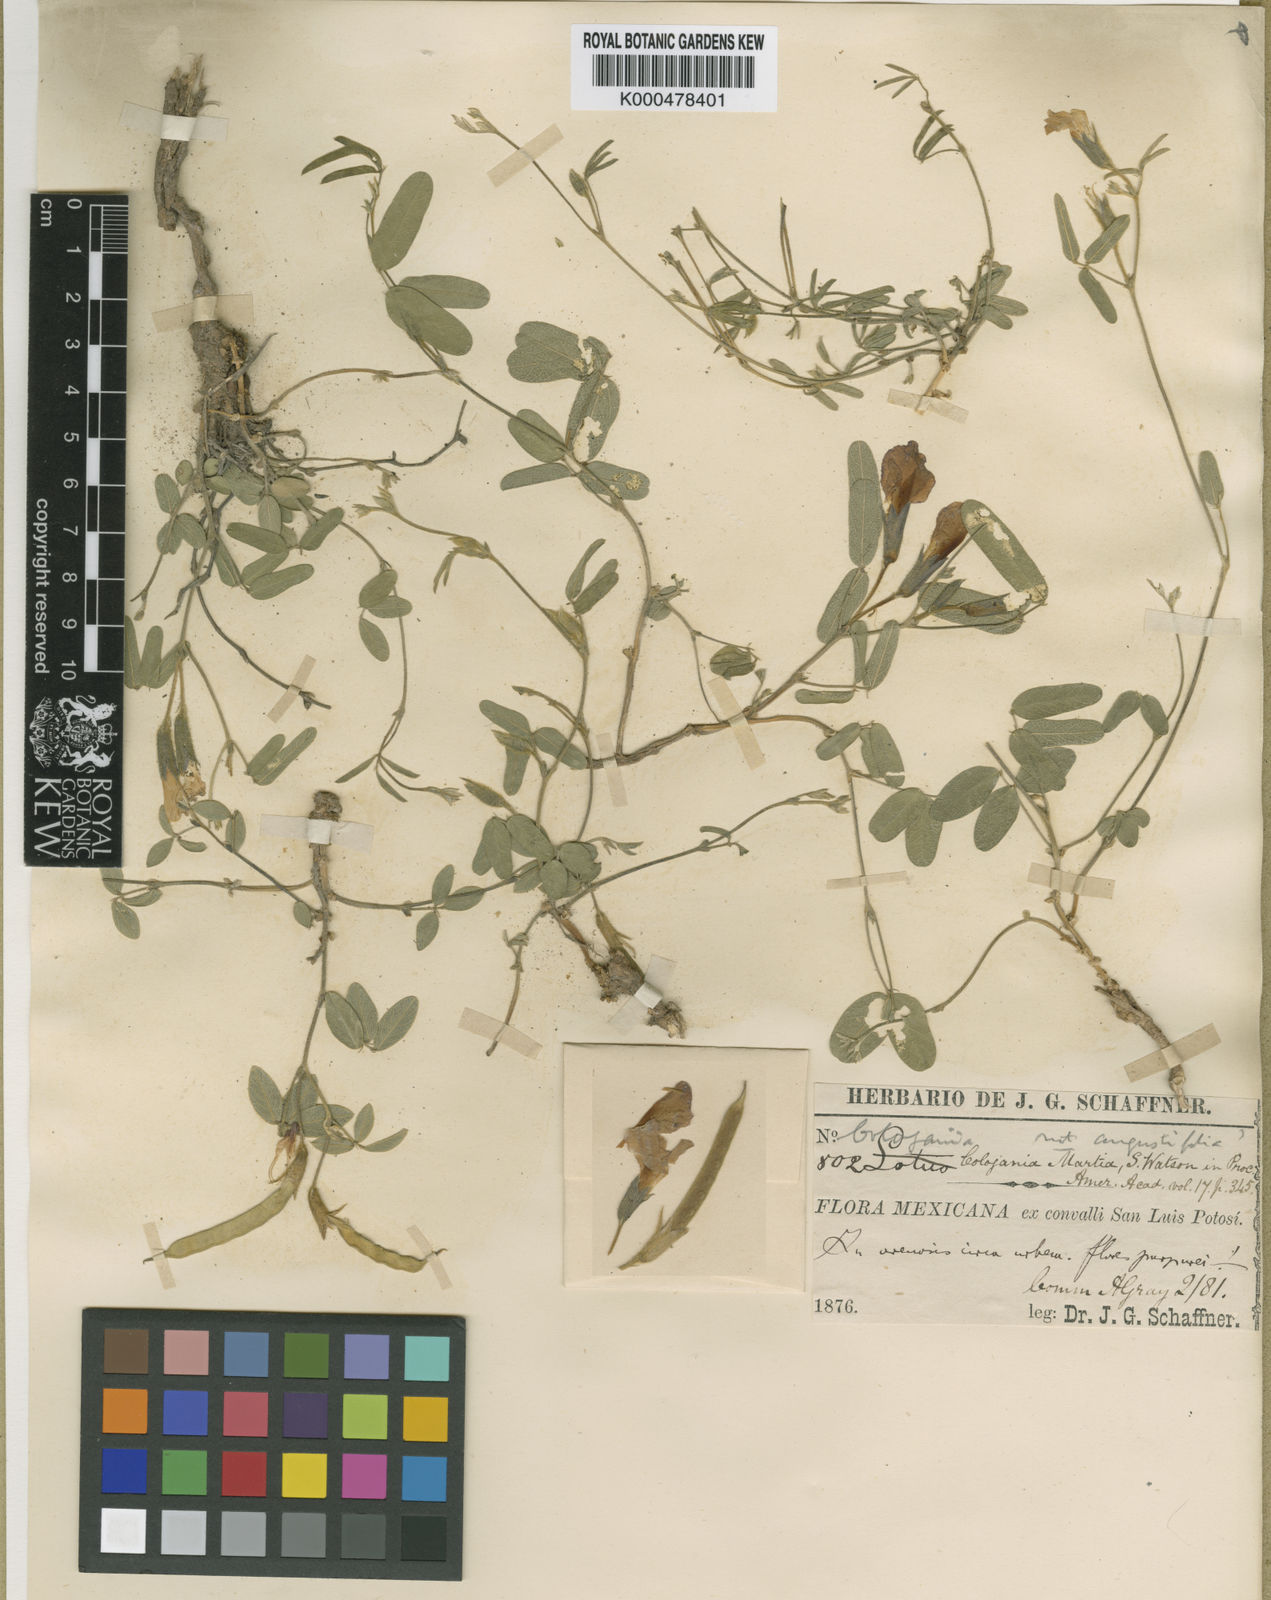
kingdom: Plantae
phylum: Tracheophyta
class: Magnoliopsida
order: Fabales
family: Fabaceae
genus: Cologania
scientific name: Cologania angustifolia
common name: Longleaf cologania
